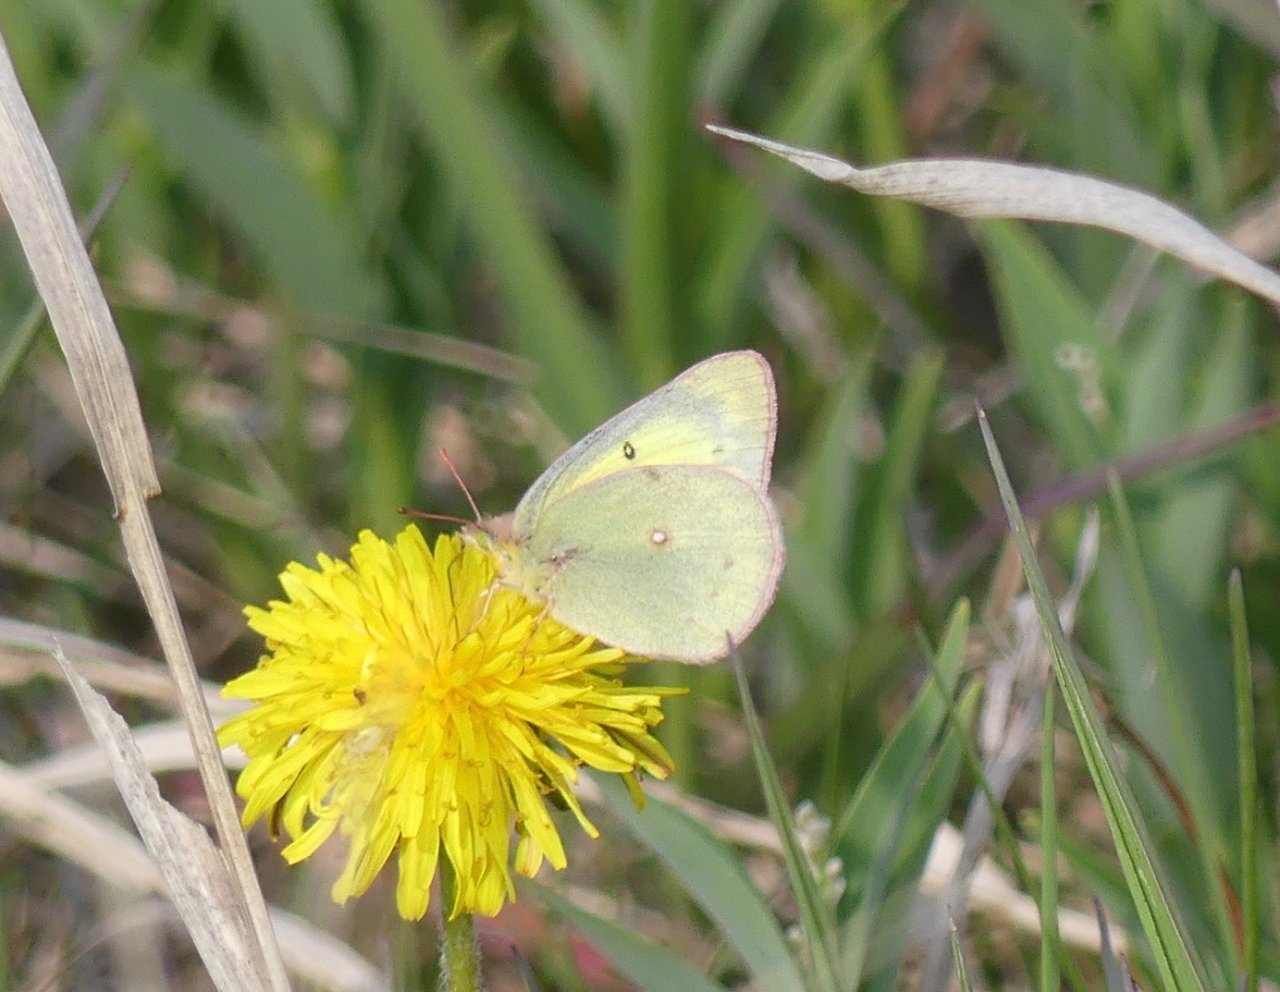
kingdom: Animalia
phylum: Arthropoda
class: Insecta
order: Lepidoptera
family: Pieridae
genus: Colias
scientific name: Colias philodice
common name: Clouded Sulphur
